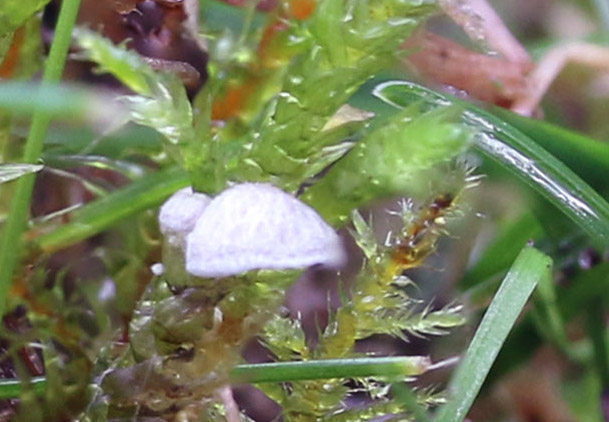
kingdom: Fungi
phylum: Basidiomycota
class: Agaricomycetes
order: Agaricales
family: Hygrophoraceae
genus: Arrhenia
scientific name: Arrhenia retiruga
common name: lille fontænehat
